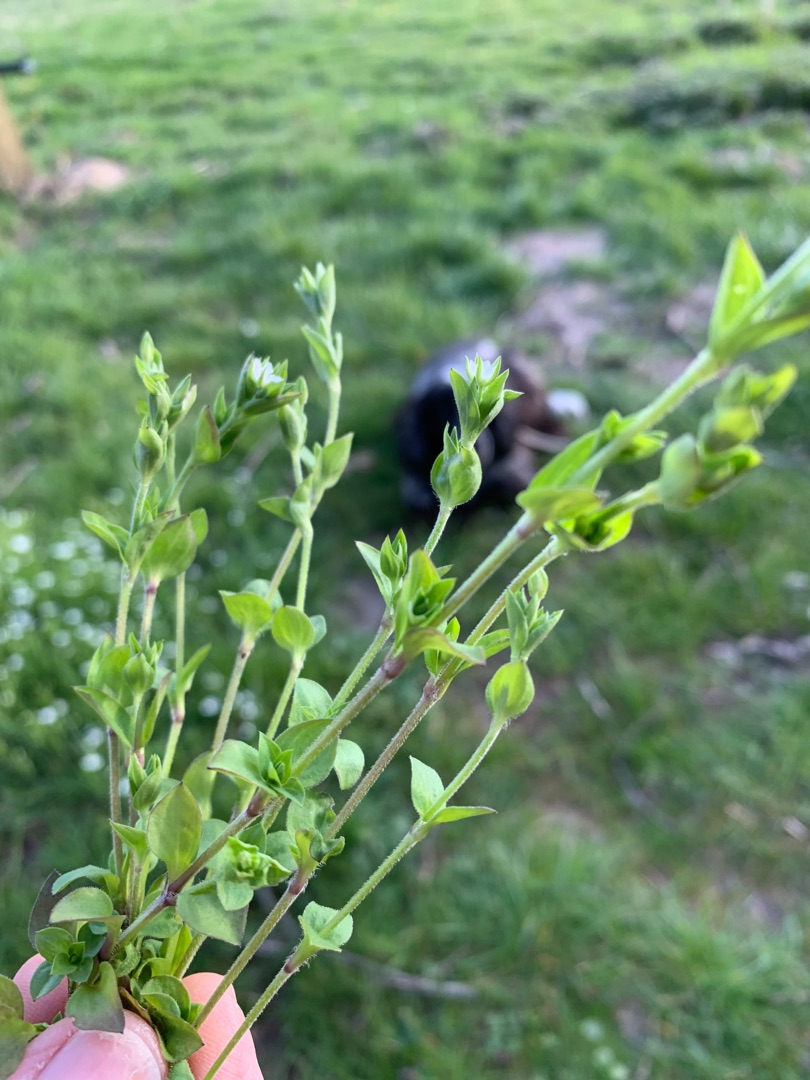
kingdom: Plantae
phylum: Tracheophyta
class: Magnoliopsida
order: Caryophyllales
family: Caryophyllaceae
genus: Moehringia
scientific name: Moehringia trinervia
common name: Skovarve
